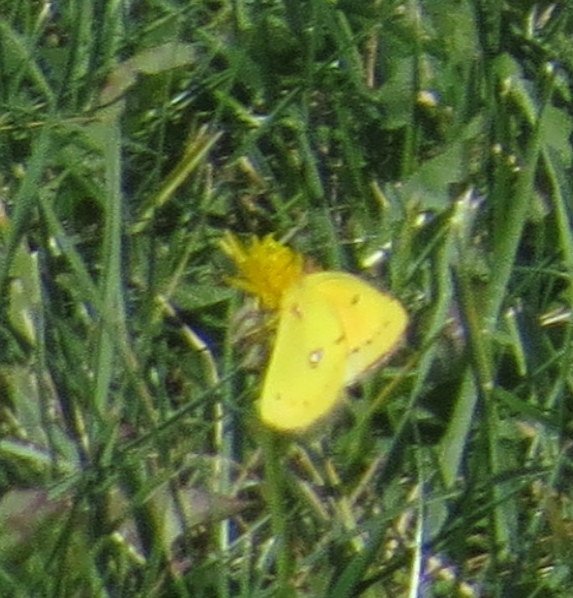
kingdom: Animalia
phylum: Arthropoda
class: Insecta
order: Lepidoptera
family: Pieridae
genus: Colias
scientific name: Colias eurytheme
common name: Orange Sulphur
